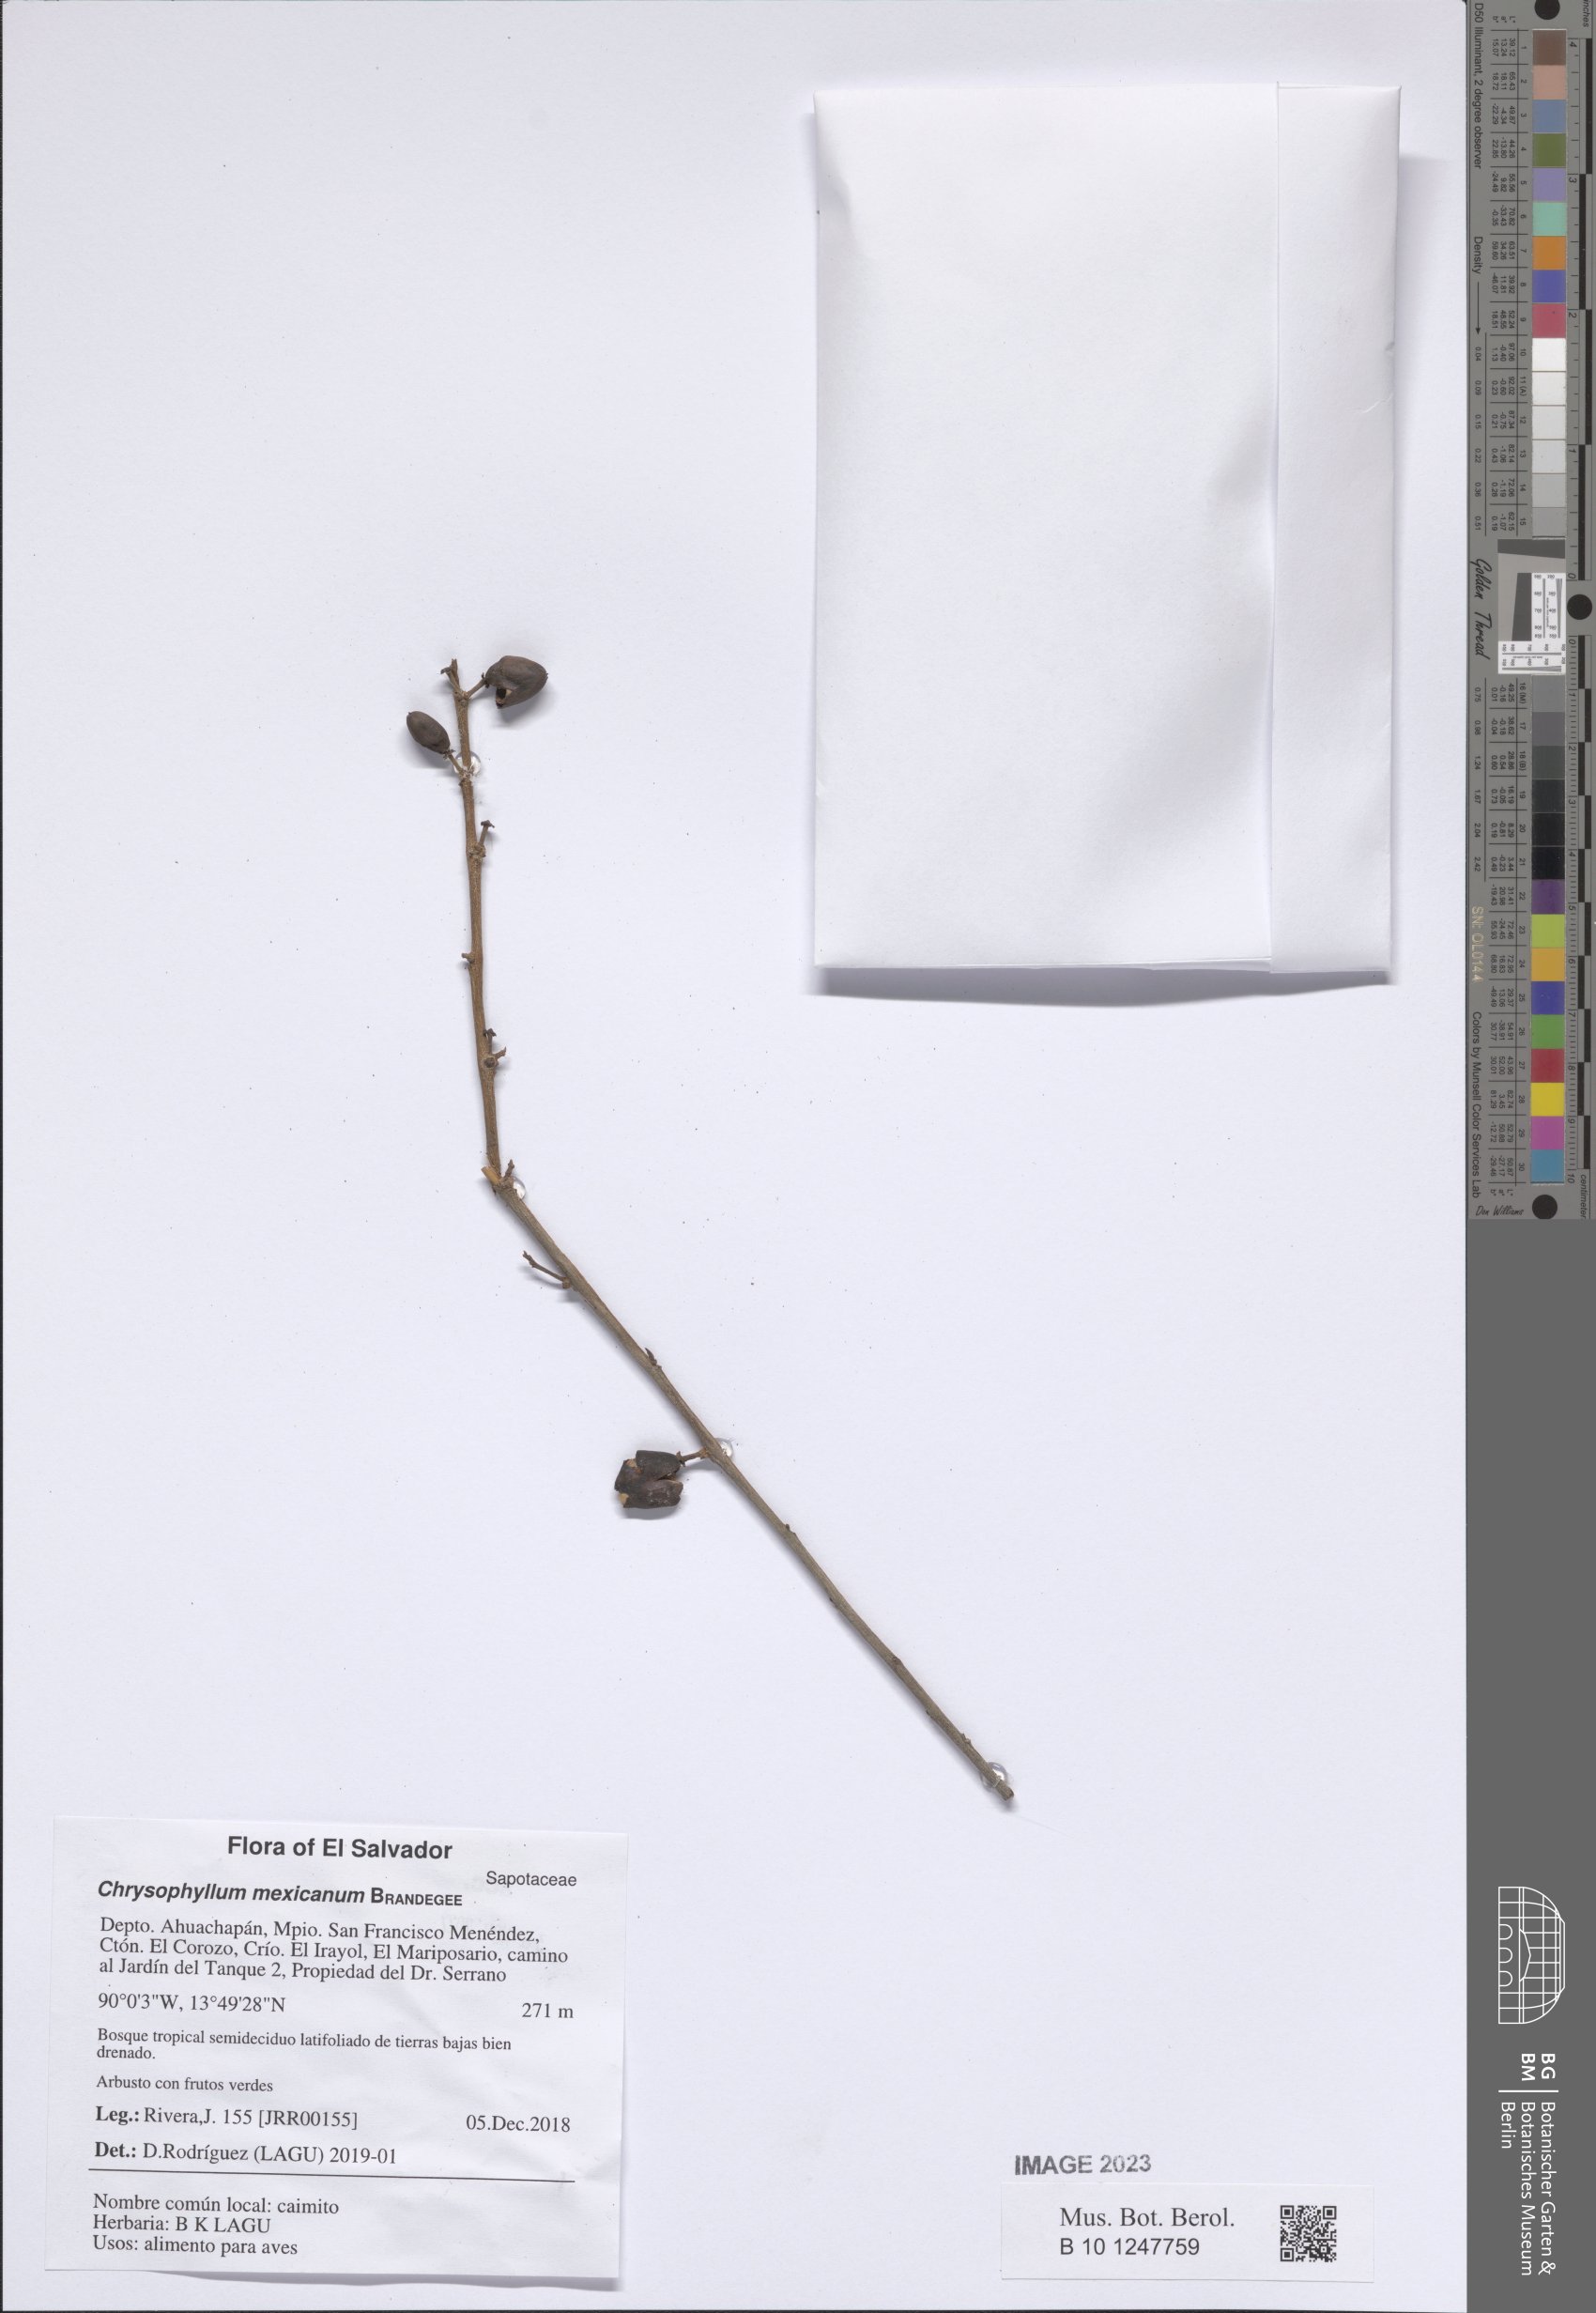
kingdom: Plantae
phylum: Tracheophyta
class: Magnoliopsida
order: Ericales
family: Sapotaceae
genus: Chrysophyllum
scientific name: Chrysophyllum mexicanum
